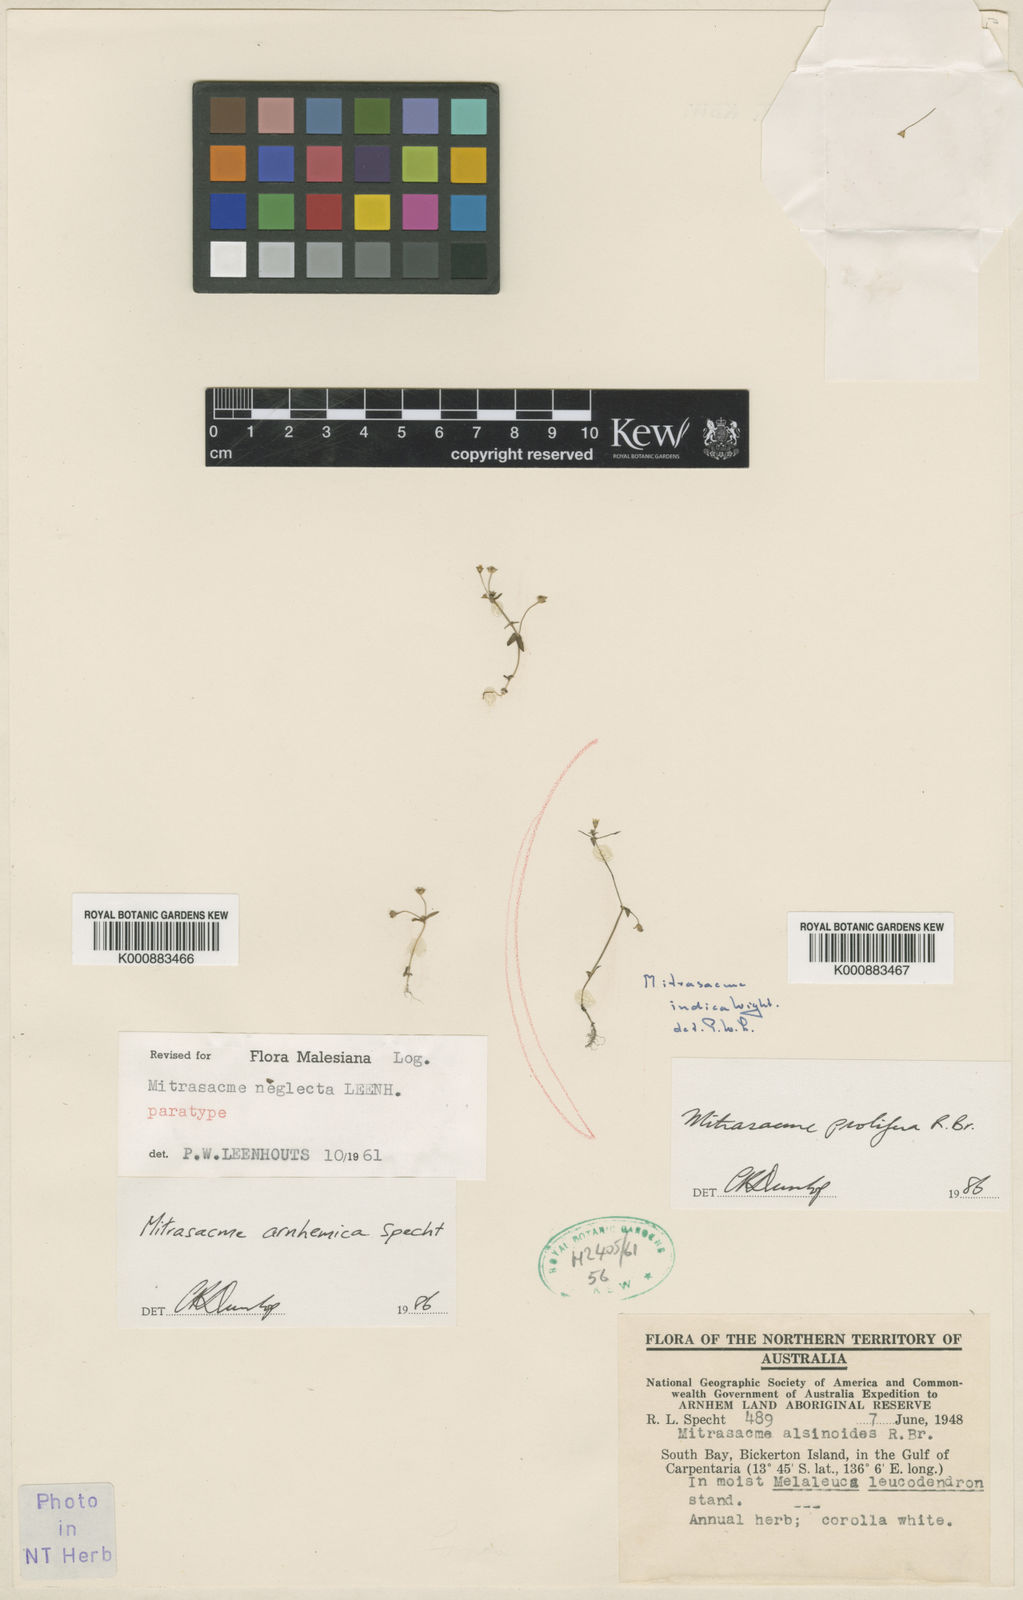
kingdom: Plantae
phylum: Tracheophyta
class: Magnoliopsida
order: Gentianales
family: Loganiaceae
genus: Mitrasacme
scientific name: Mitrasacme nummularia
